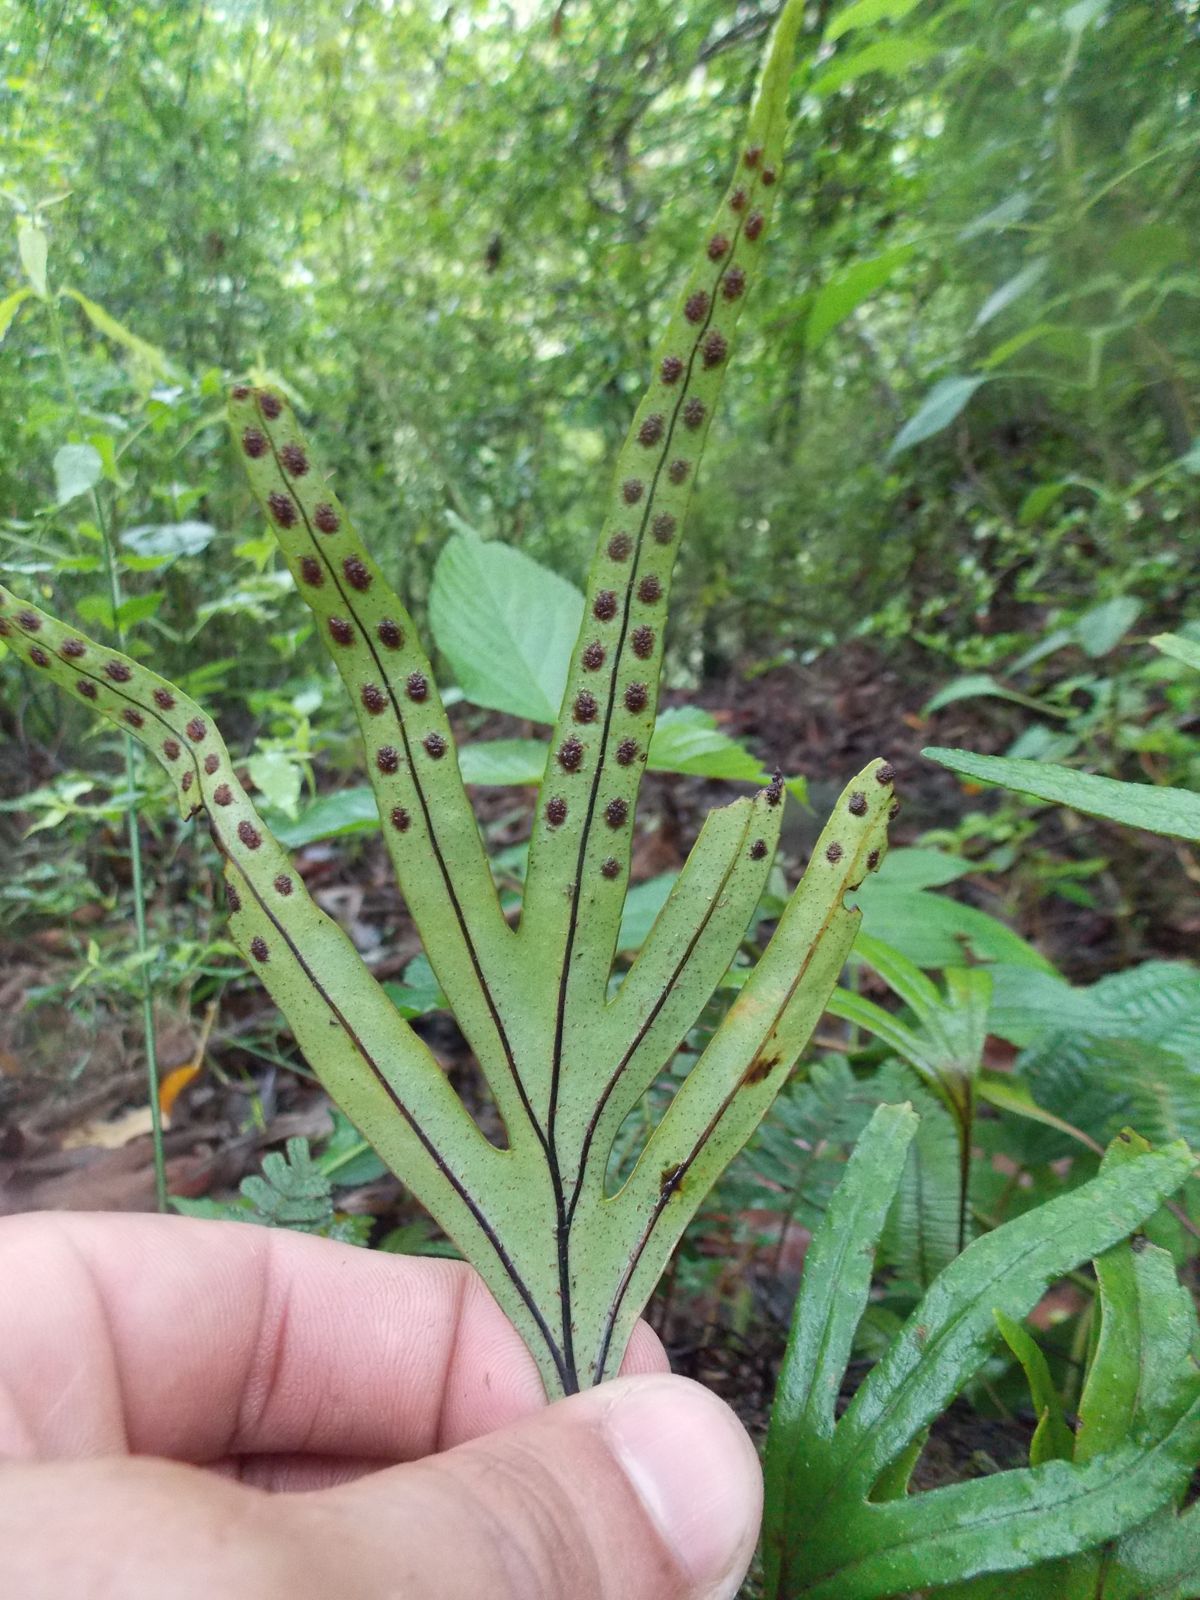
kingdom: Plantae
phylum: Tracheophyta
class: Polypodiopsida
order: Polypodiales
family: Polypodiaceae
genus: Pleopeltis
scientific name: Pleopeltis angusta
